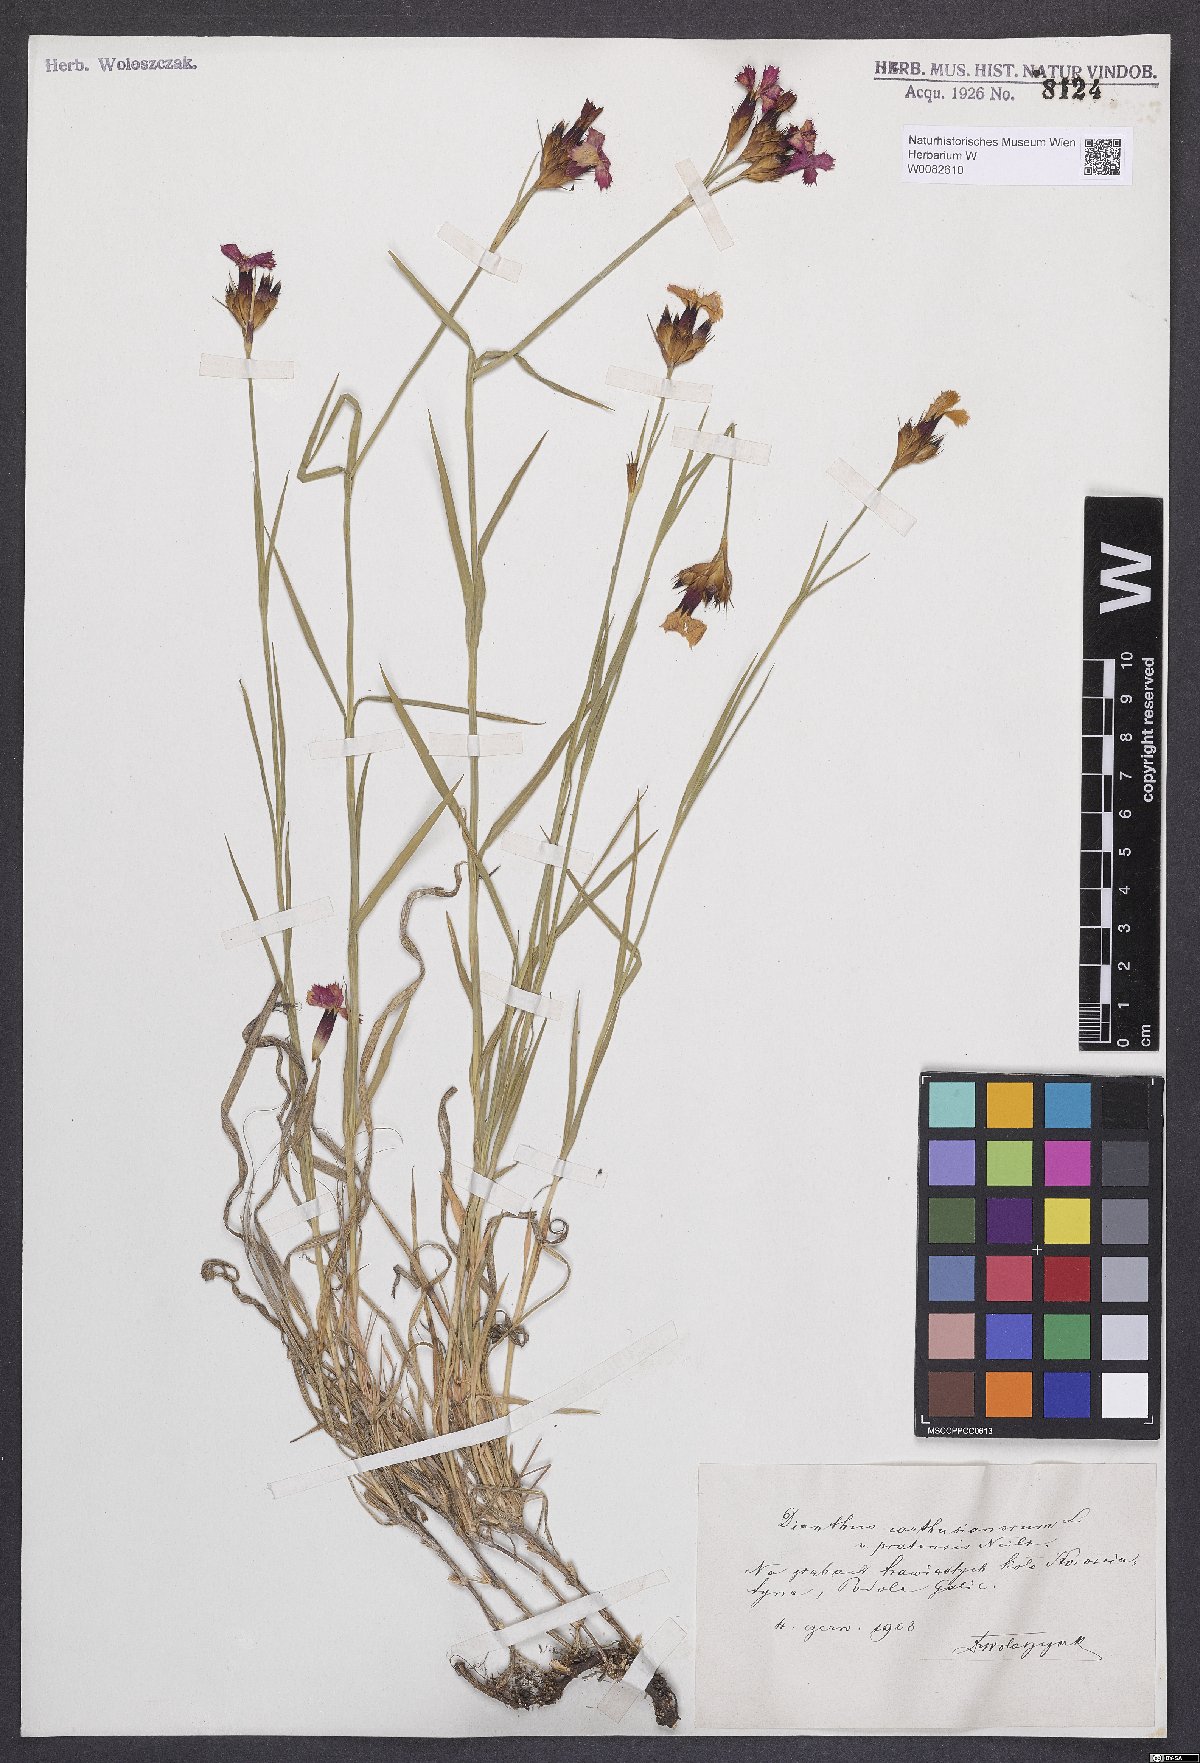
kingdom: Plantae
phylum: Tracheophyta
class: Magnoliopsida
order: Caryophyllales
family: Caryophyllaceae
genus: Dianthus
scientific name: Dianthus carthusianorum
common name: Carthusian pink
